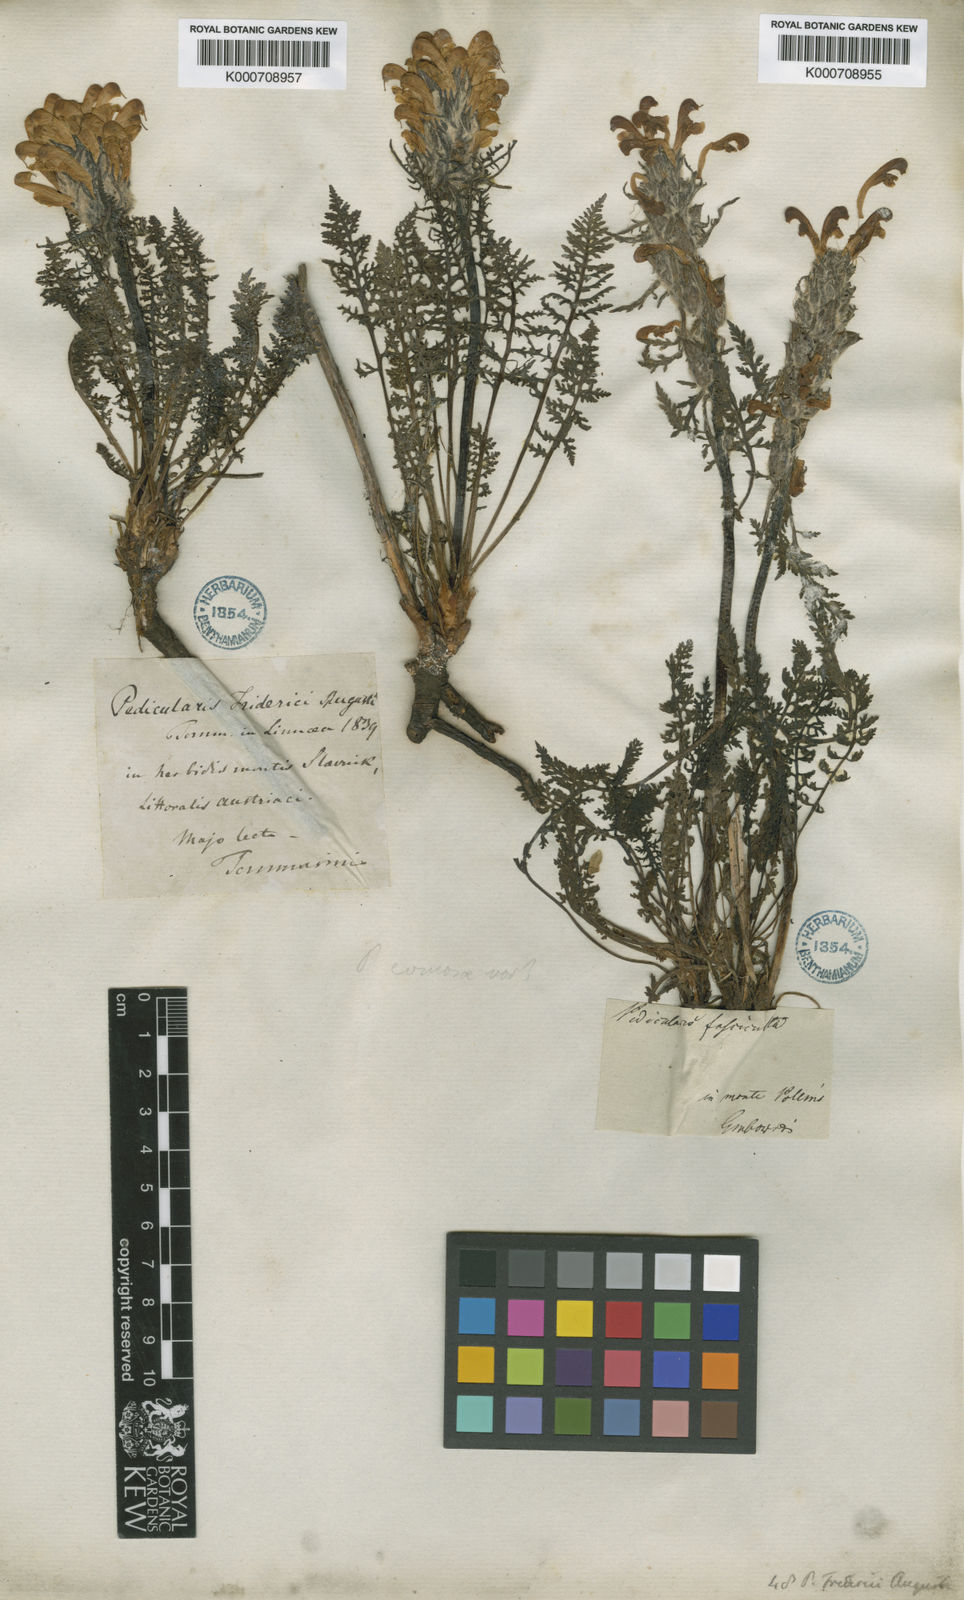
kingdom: Plantae
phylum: Tracheophyta
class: Magnoliopsida
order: Lamiales
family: Orobanchaceae
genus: Pedicularis
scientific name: Pedicularis friderici-augusti
